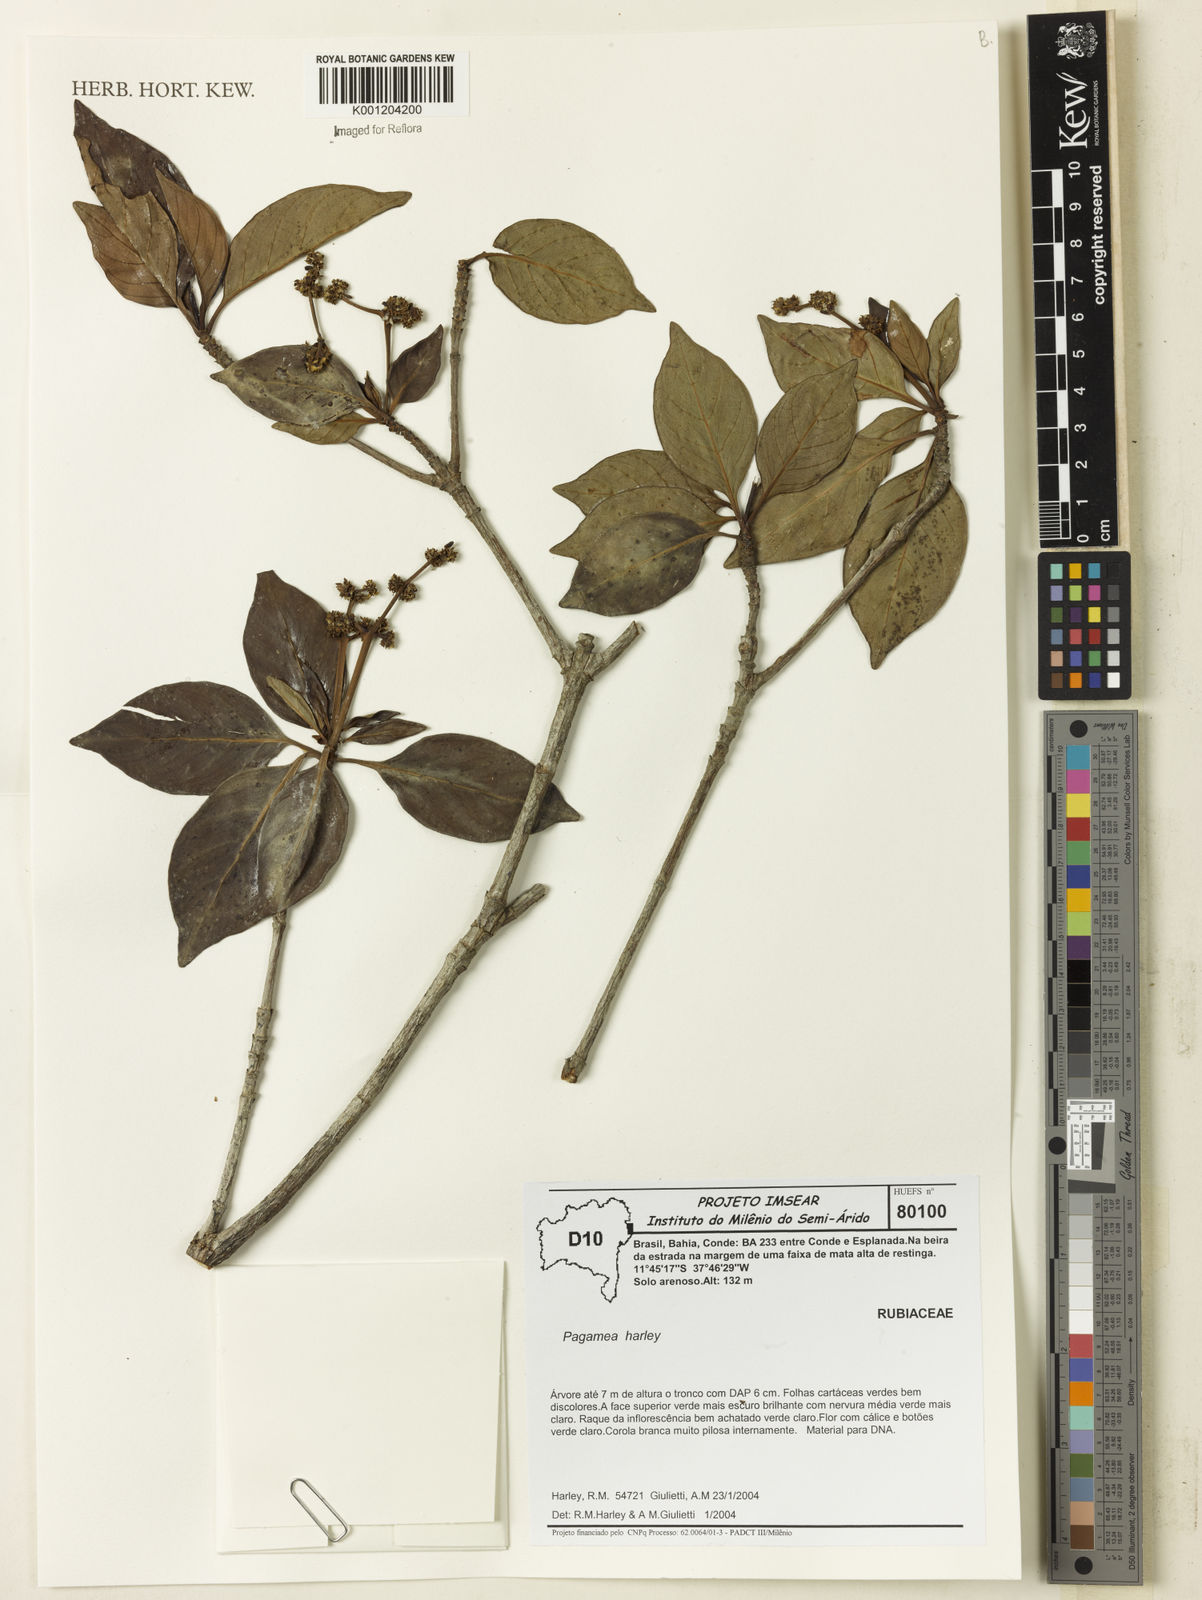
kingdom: Plantae
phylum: Tracheophyta
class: Magnoliopsida
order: Gentianales
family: Rubiaceae
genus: Pagamea
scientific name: Pagamea guianensis
